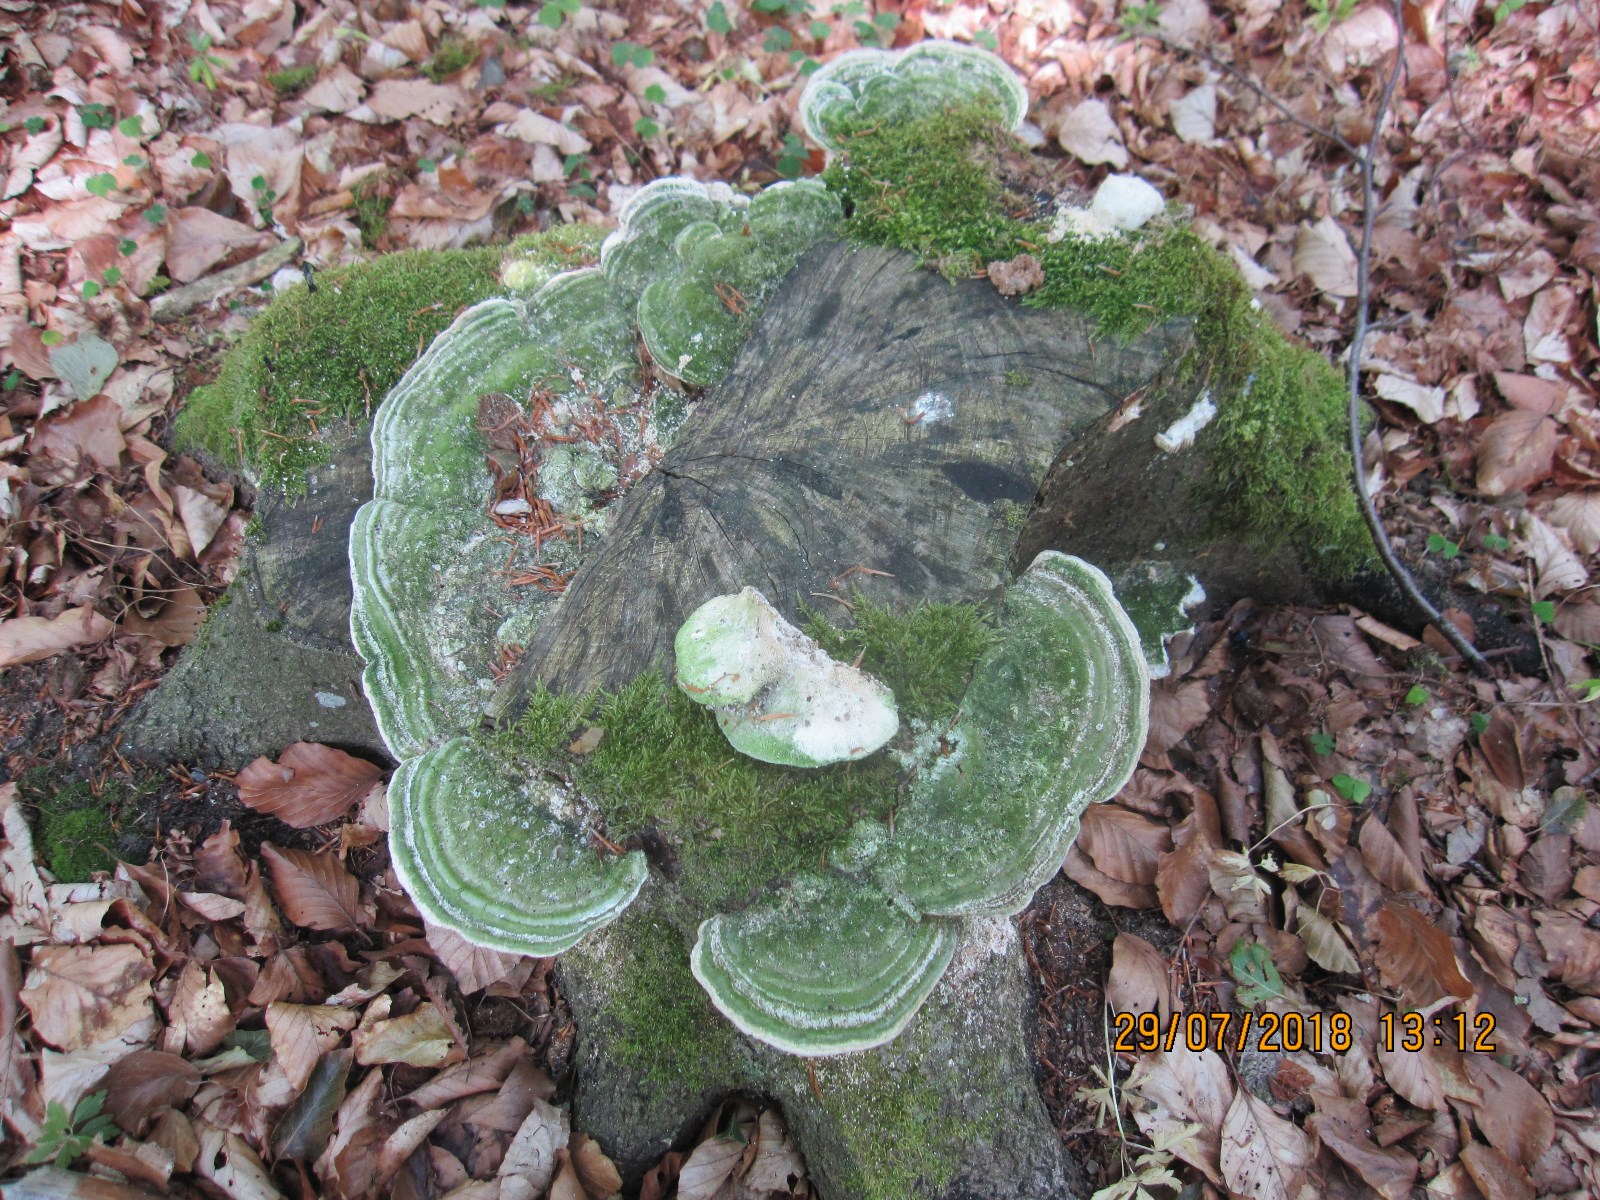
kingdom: Fungi
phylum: Basidiomycota
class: Agaricomycetes
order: Polyporales
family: Polyporaceae
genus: Trametes
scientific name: Trametes gibbosa
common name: puklet læderporesvamp
